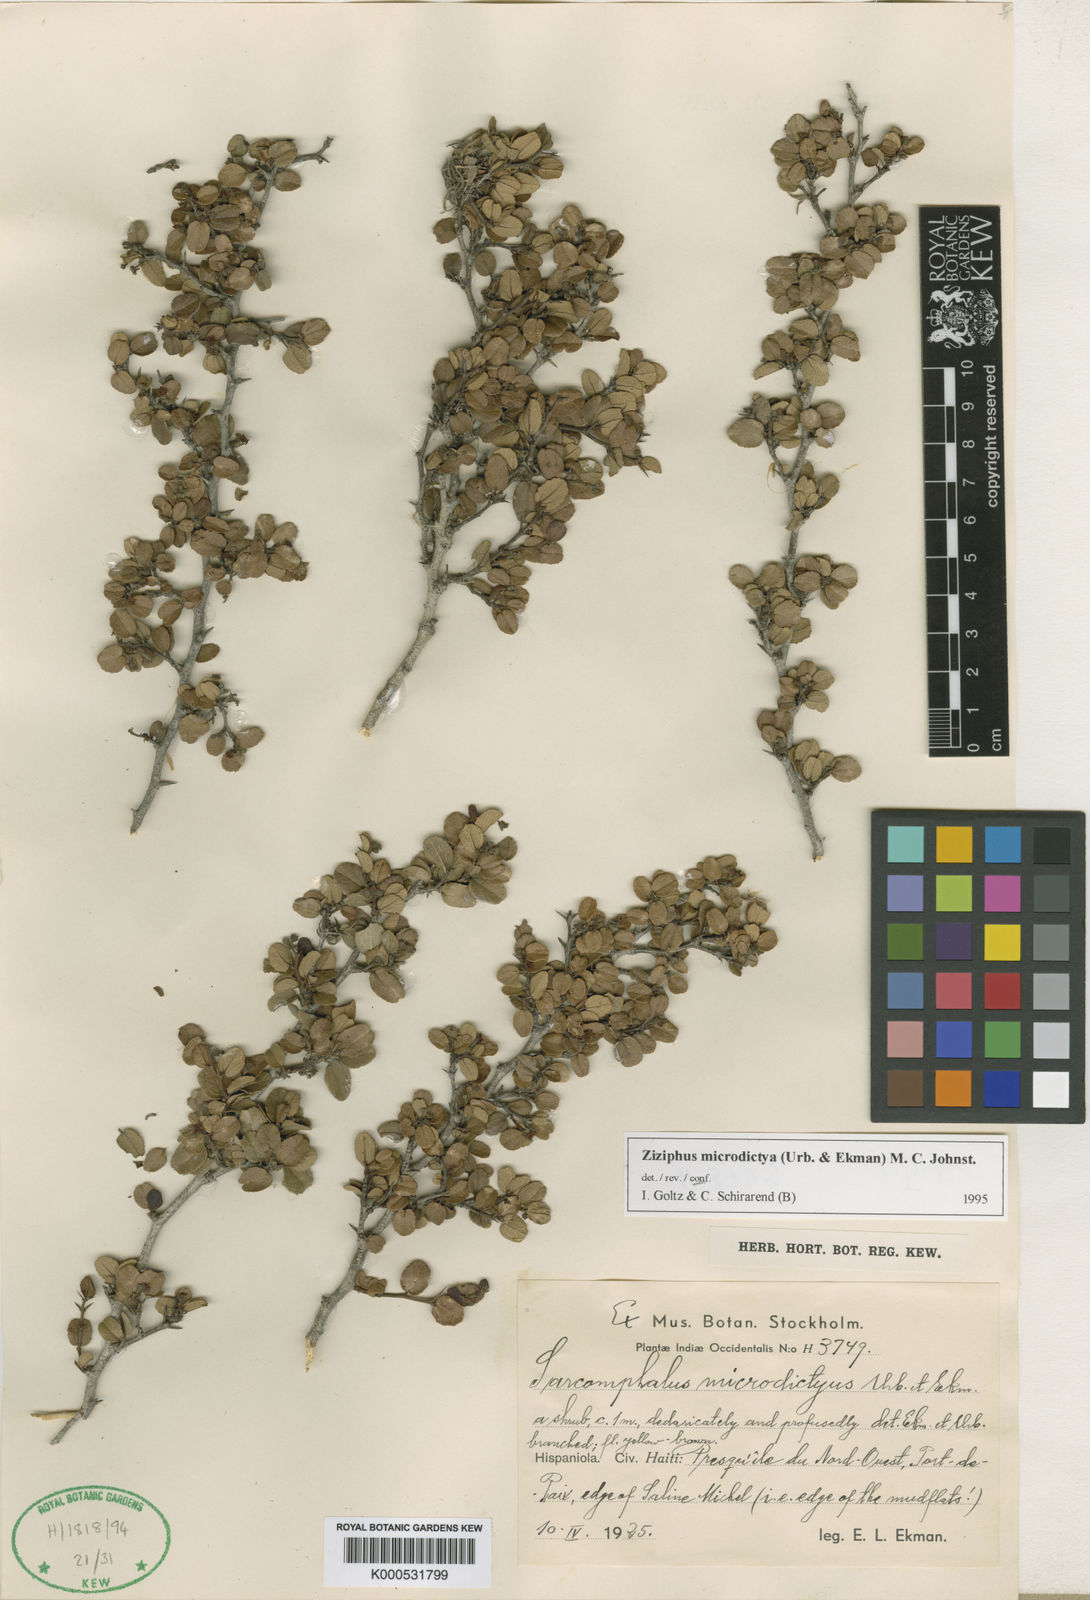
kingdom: Plantae
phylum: Tracheophyta
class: Magnoliopsida
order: Rosales
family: Rhamnaceae
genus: Sarcomphalus
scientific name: Sarcomphalus acutifolius
